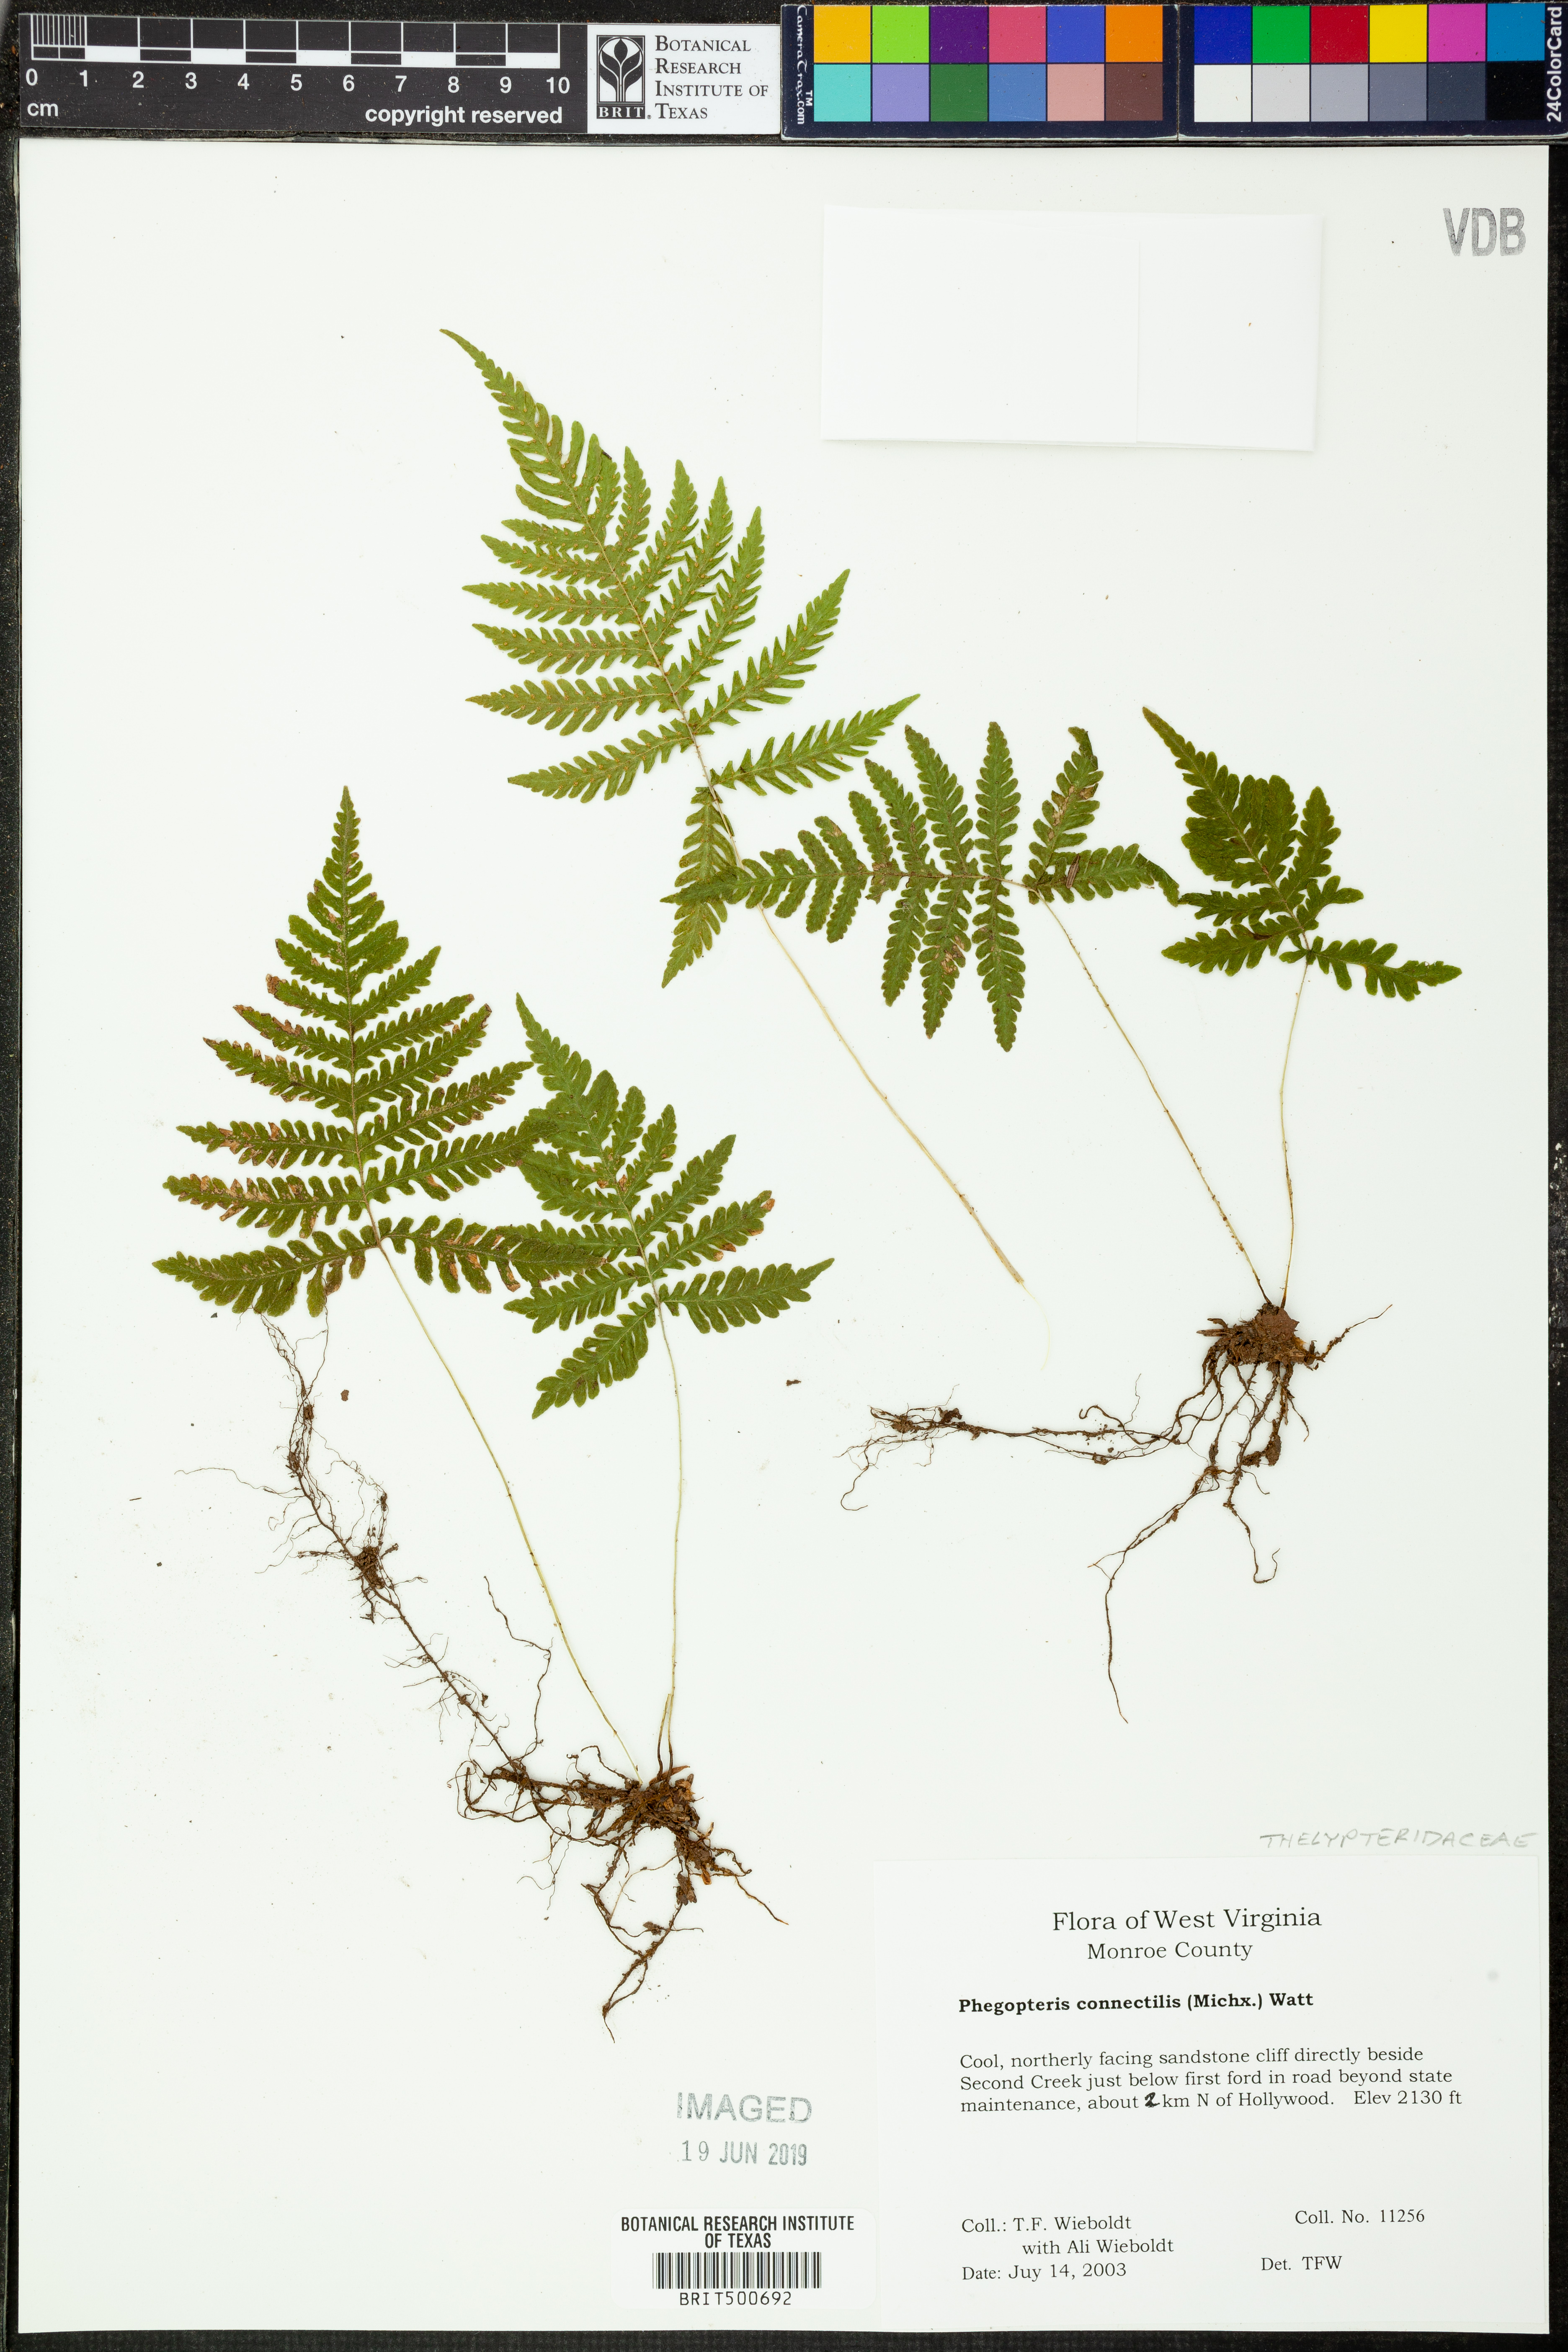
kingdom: Plantae
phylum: Tracheophyta
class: Polypodiopsida
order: Polypodiales
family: Thelypteridaceae
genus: Phegopteris
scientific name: Phegopteris connectilis
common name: Beech fern
